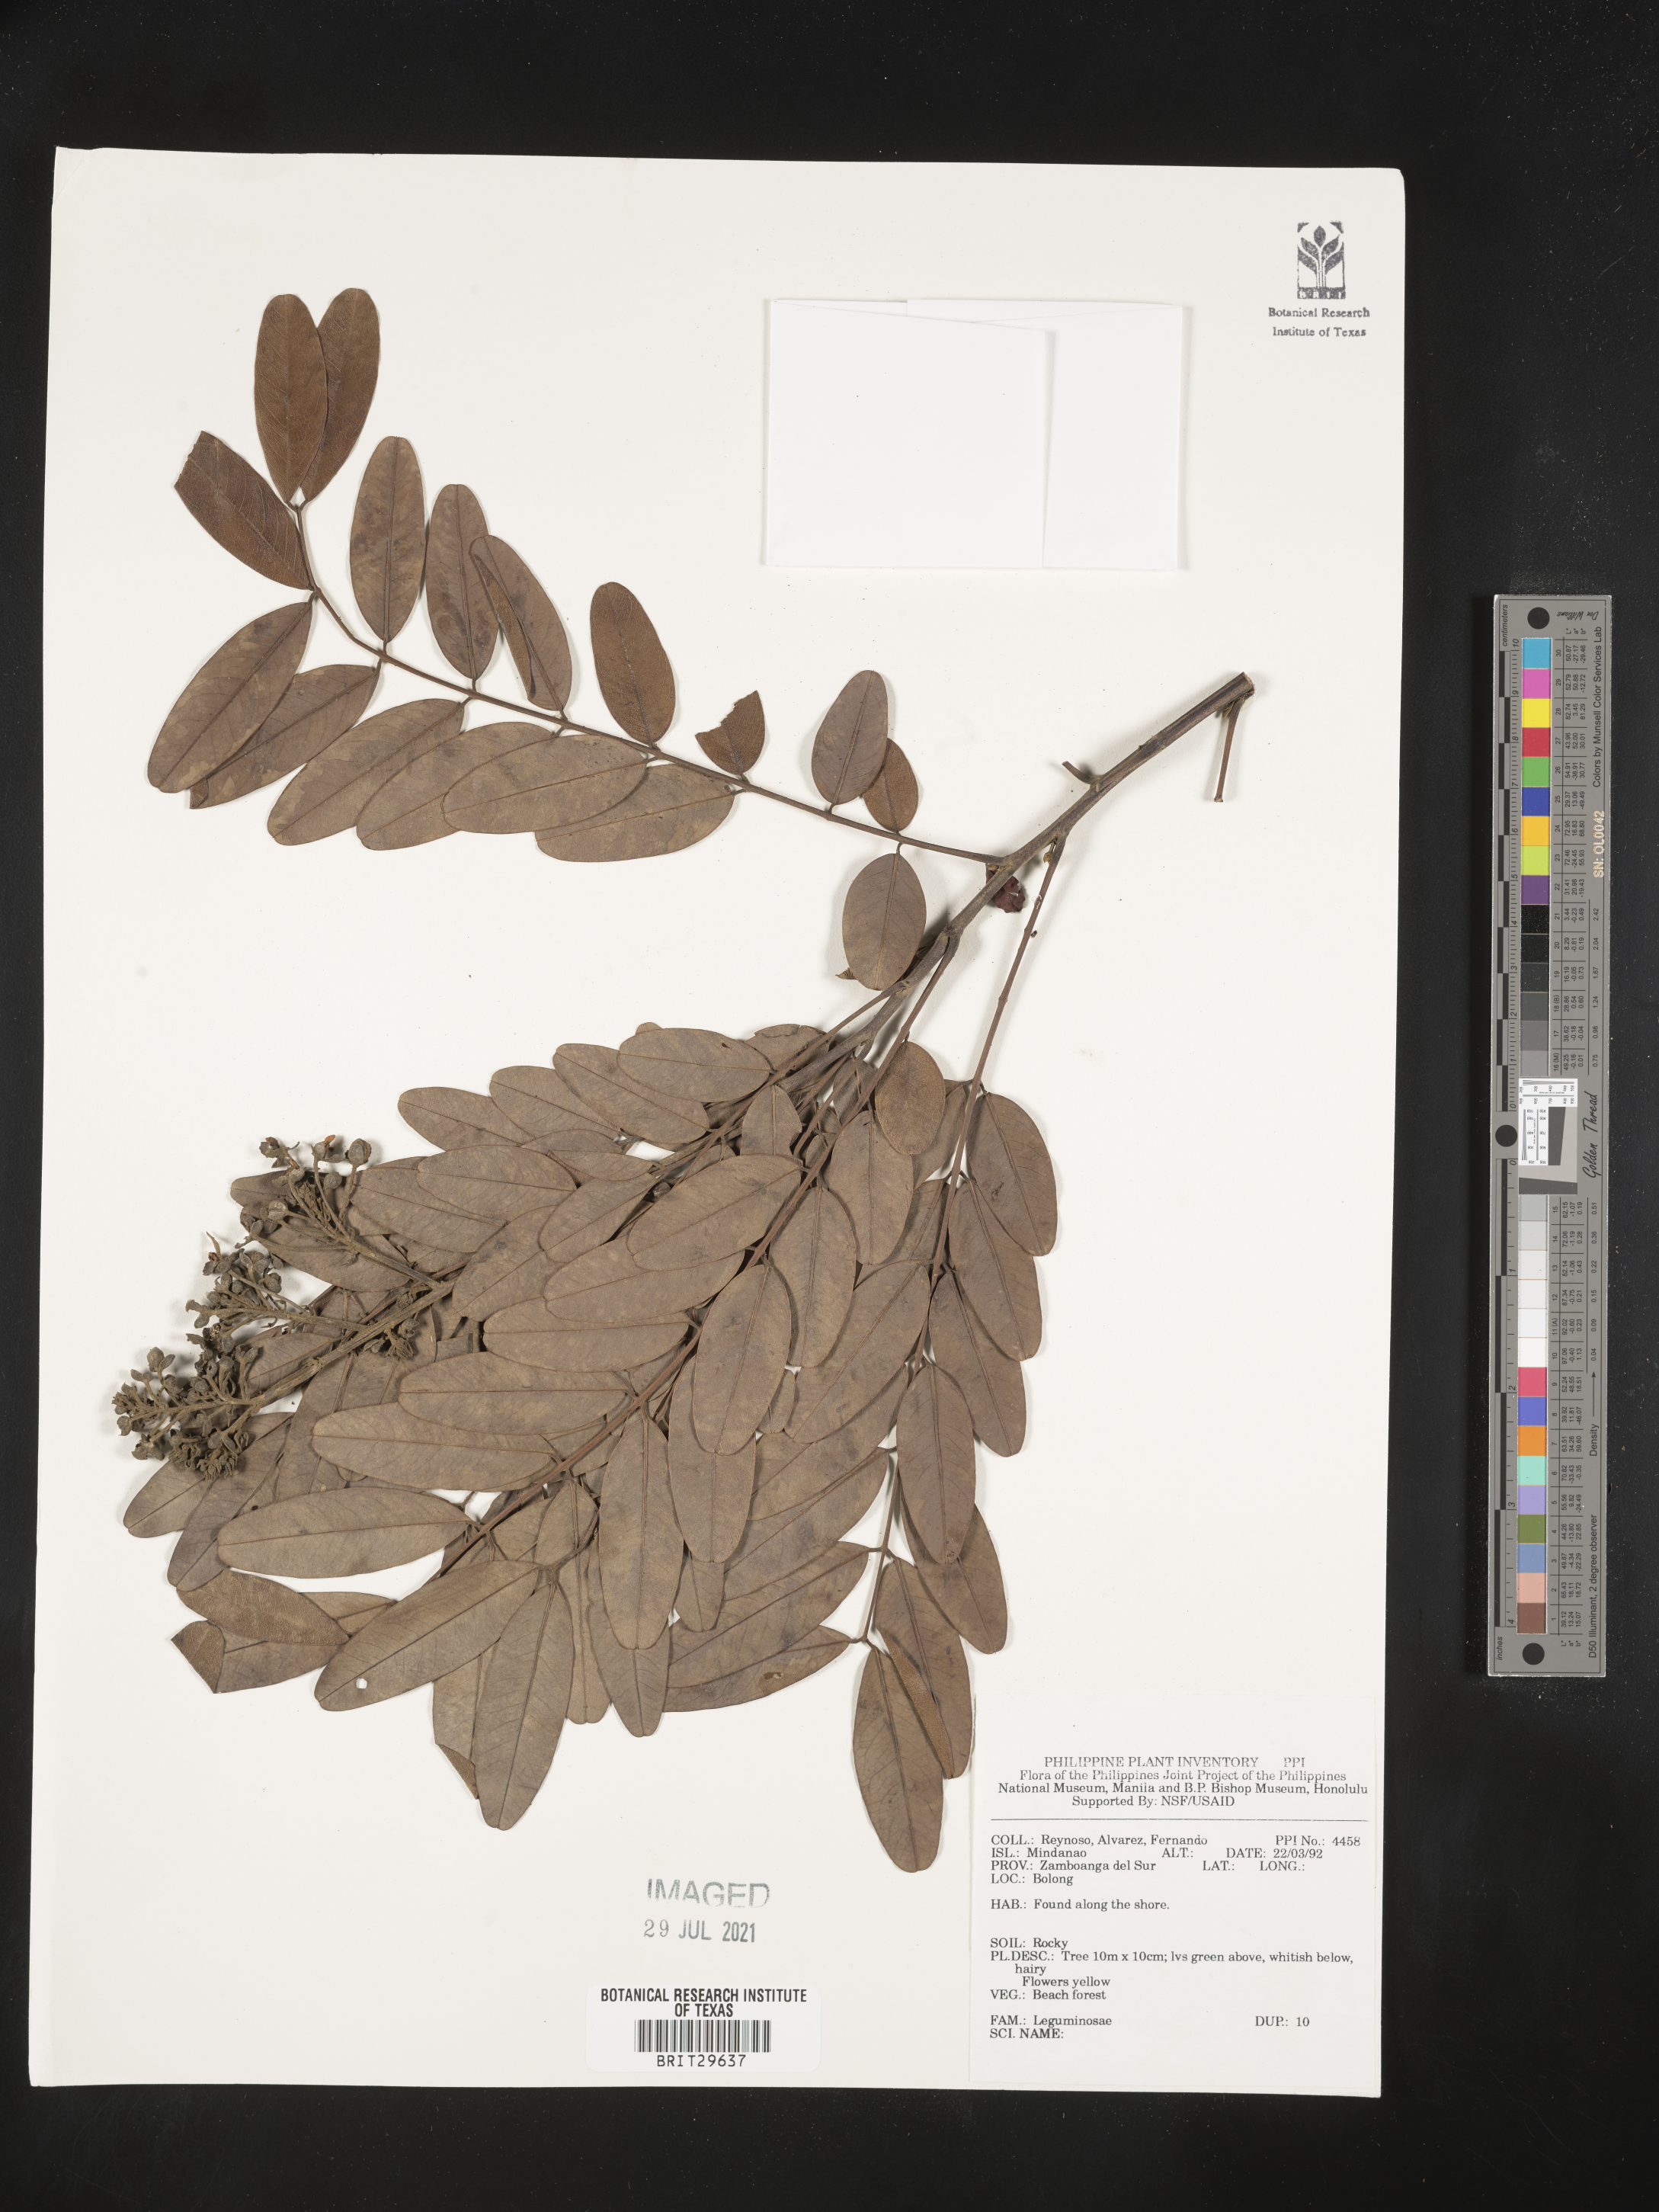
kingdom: Plantae
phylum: Tracheophyta
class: Magnoliopsida
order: Fabales
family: Fabaceae
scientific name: Fabaceae
